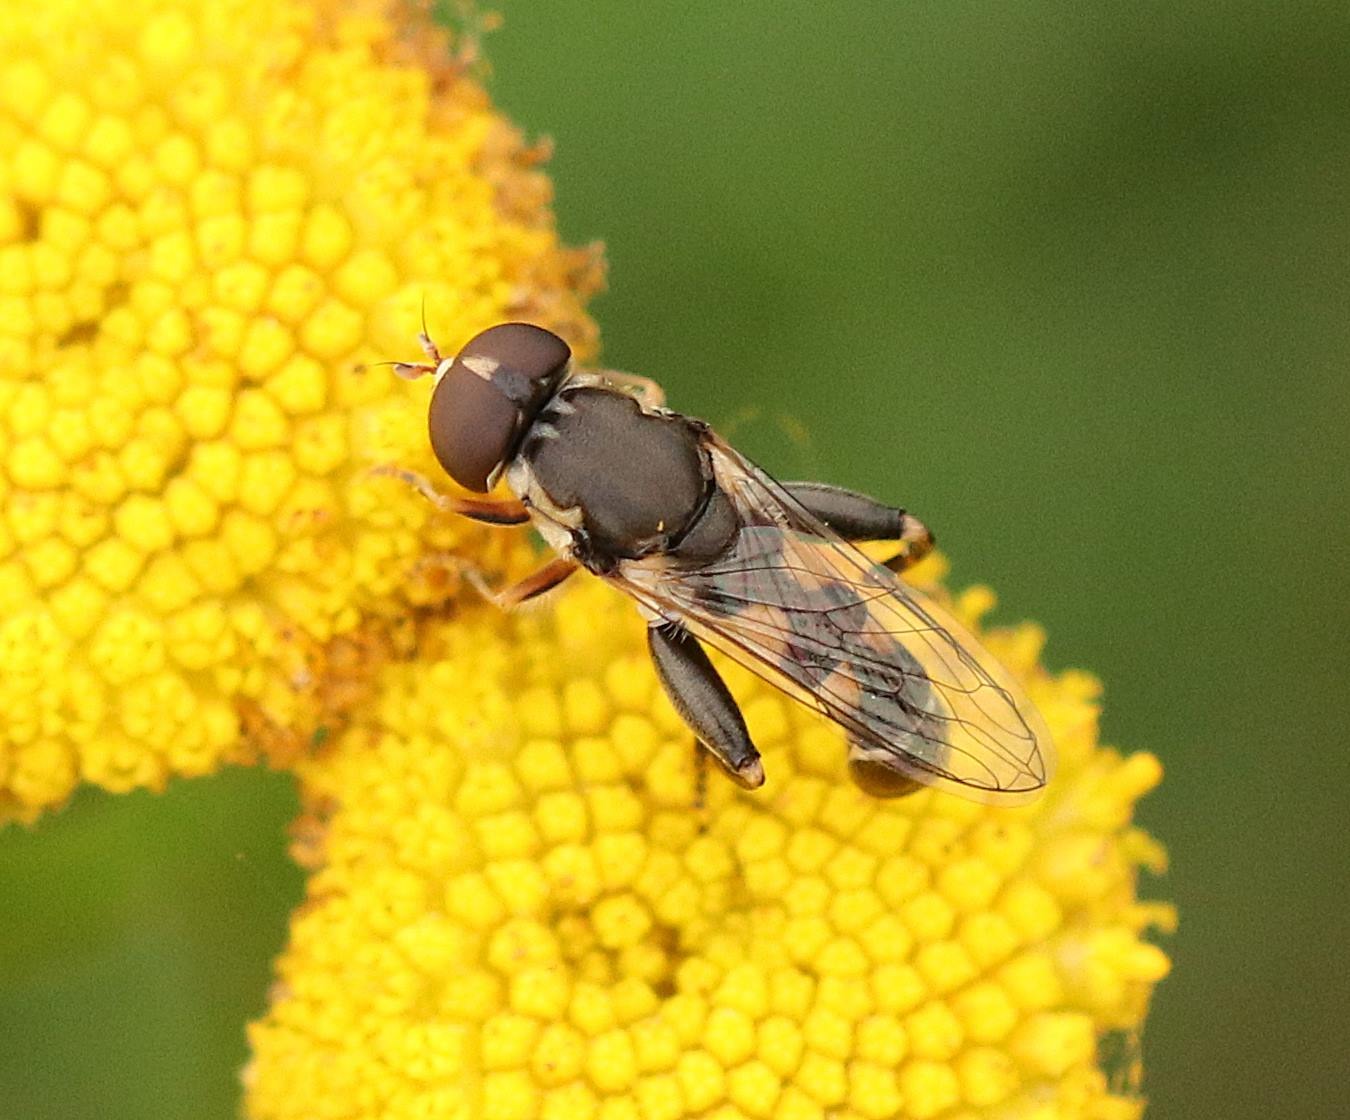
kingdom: Animalia
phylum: Arthropoda
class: Insecta
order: Diptera
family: Syrphidae
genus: Syritta
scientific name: Syritta pipiens
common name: Kompost-svirreflue
